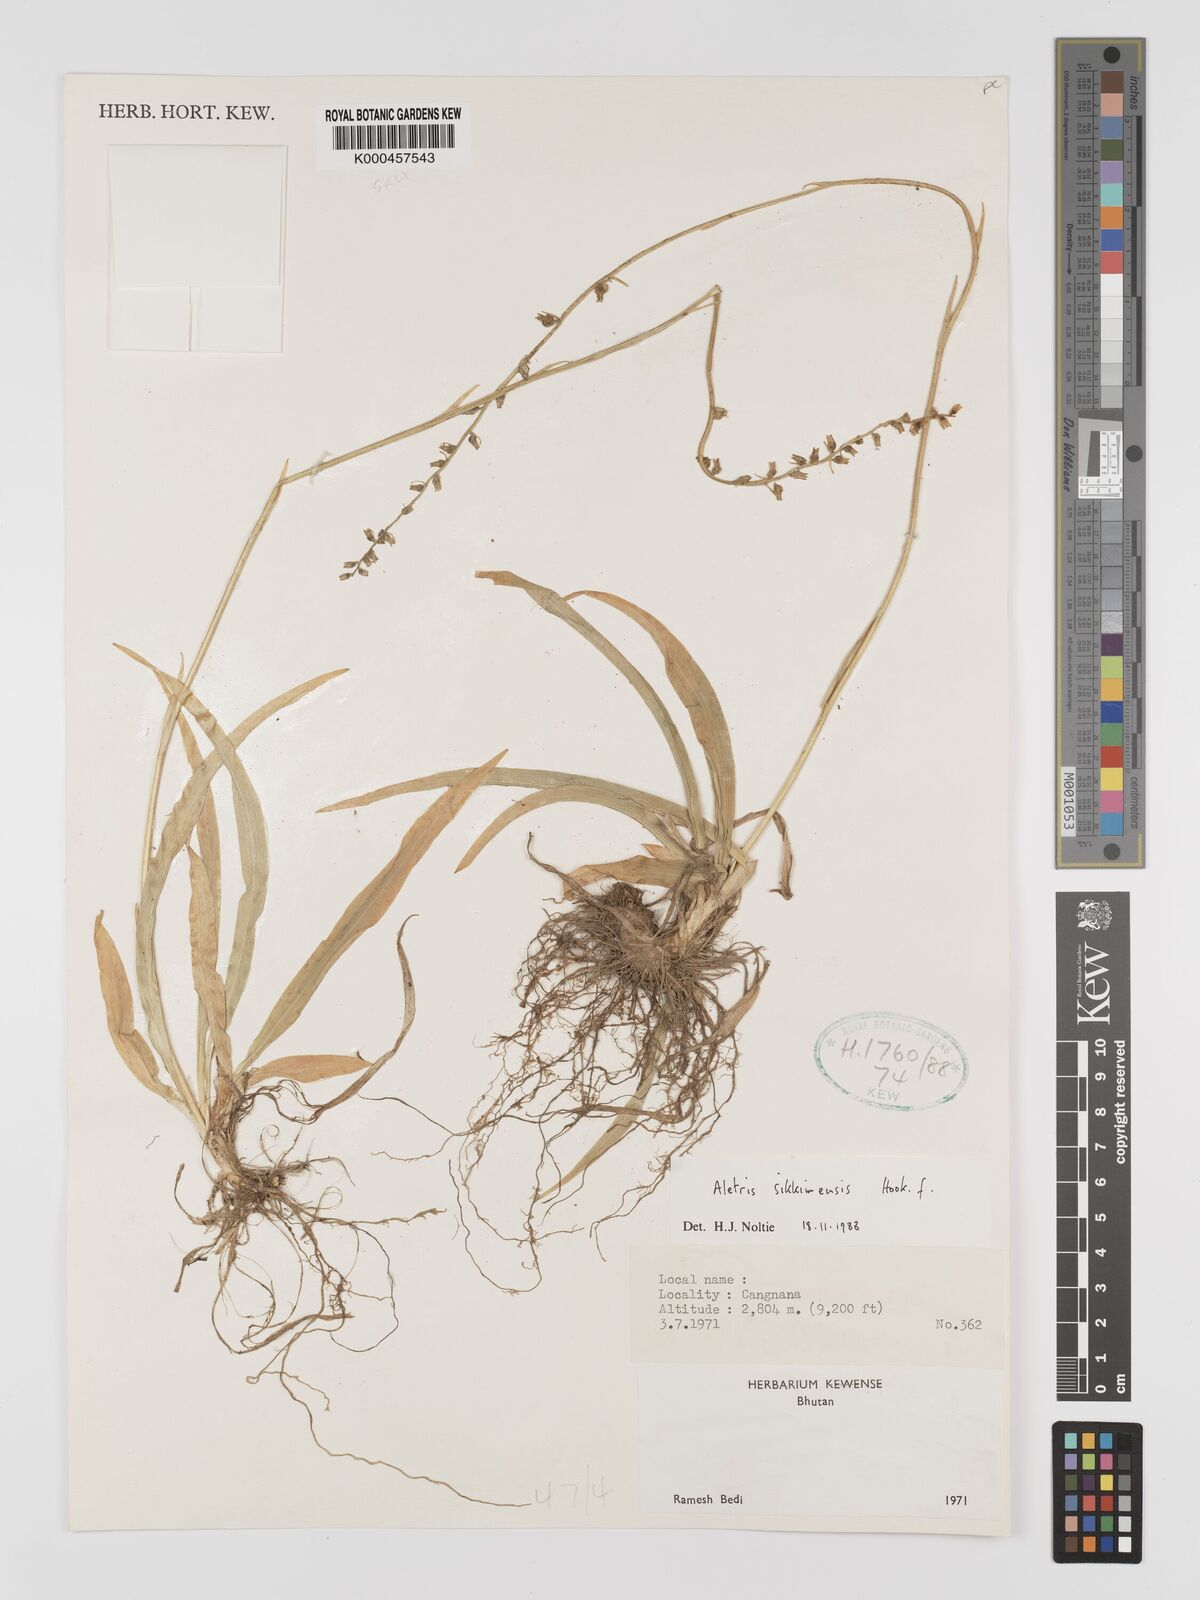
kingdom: Plantae
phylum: Tracheophyta
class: Liliopsida
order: Dioscoreales
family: Nartheciaceae
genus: Aletris
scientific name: Aletris glabra
